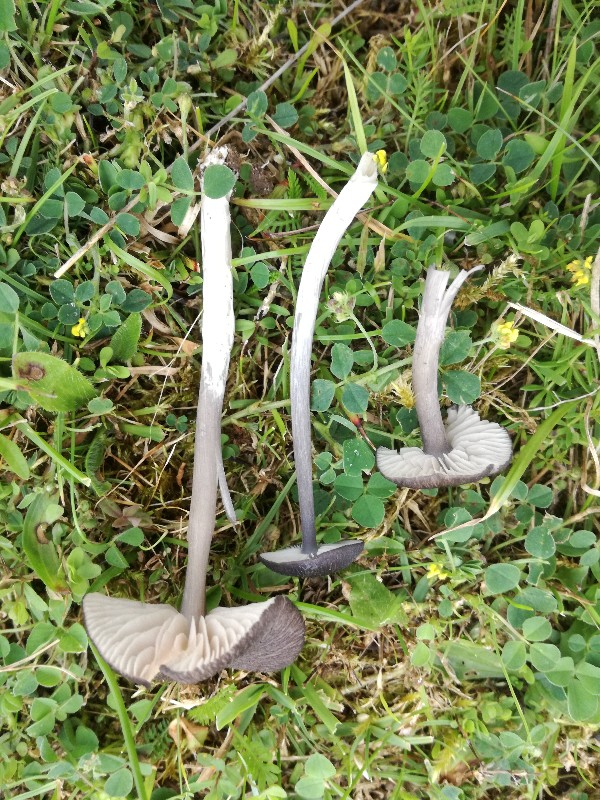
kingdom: Fungi
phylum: Basidiomycota
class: Agaricomycetes
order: Agaricales
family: Entolomataceae
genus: Entoloma
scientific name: Entoloma porphyrogriseum
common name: porfyrgrå rødblad
